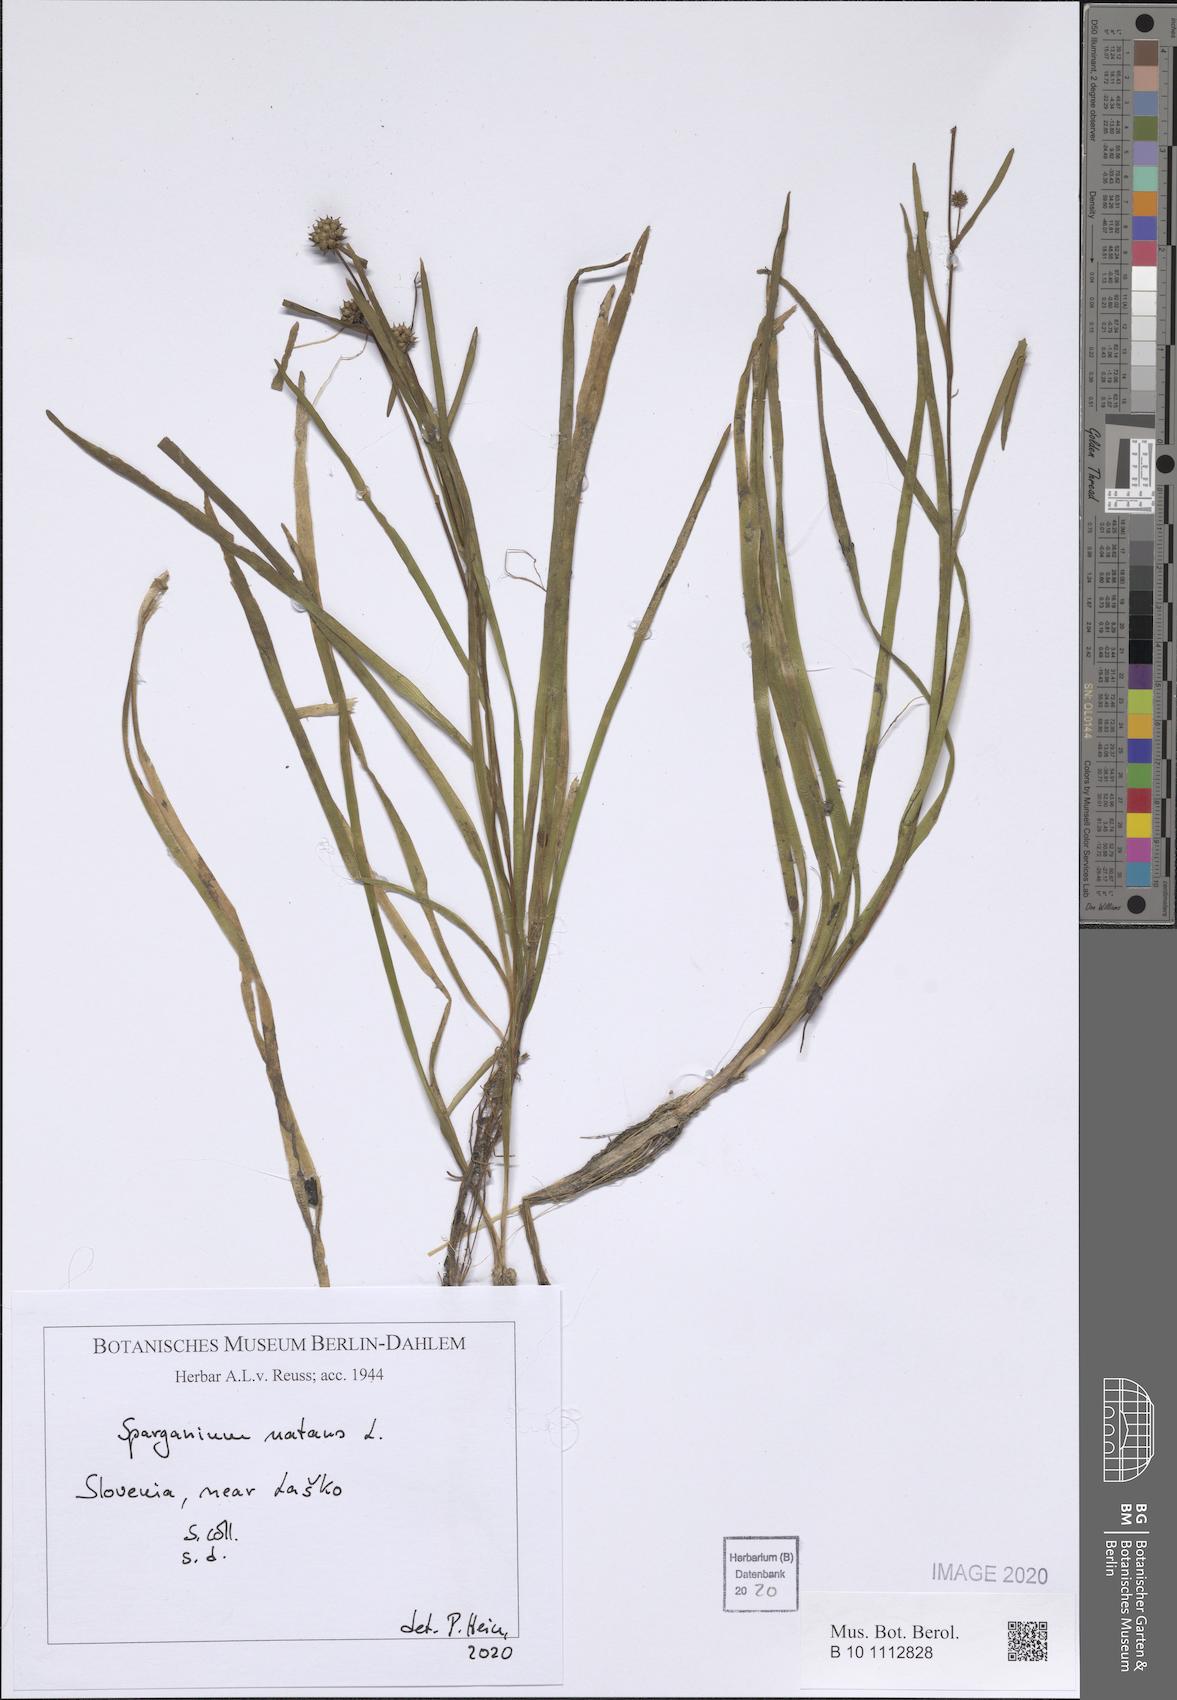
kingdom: Plantae
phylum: Tracheophyta
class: Liliopsida
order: Poales
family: Typhaceae
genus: Sparganium
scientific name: Sparganium natans
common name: Least bur-reed
